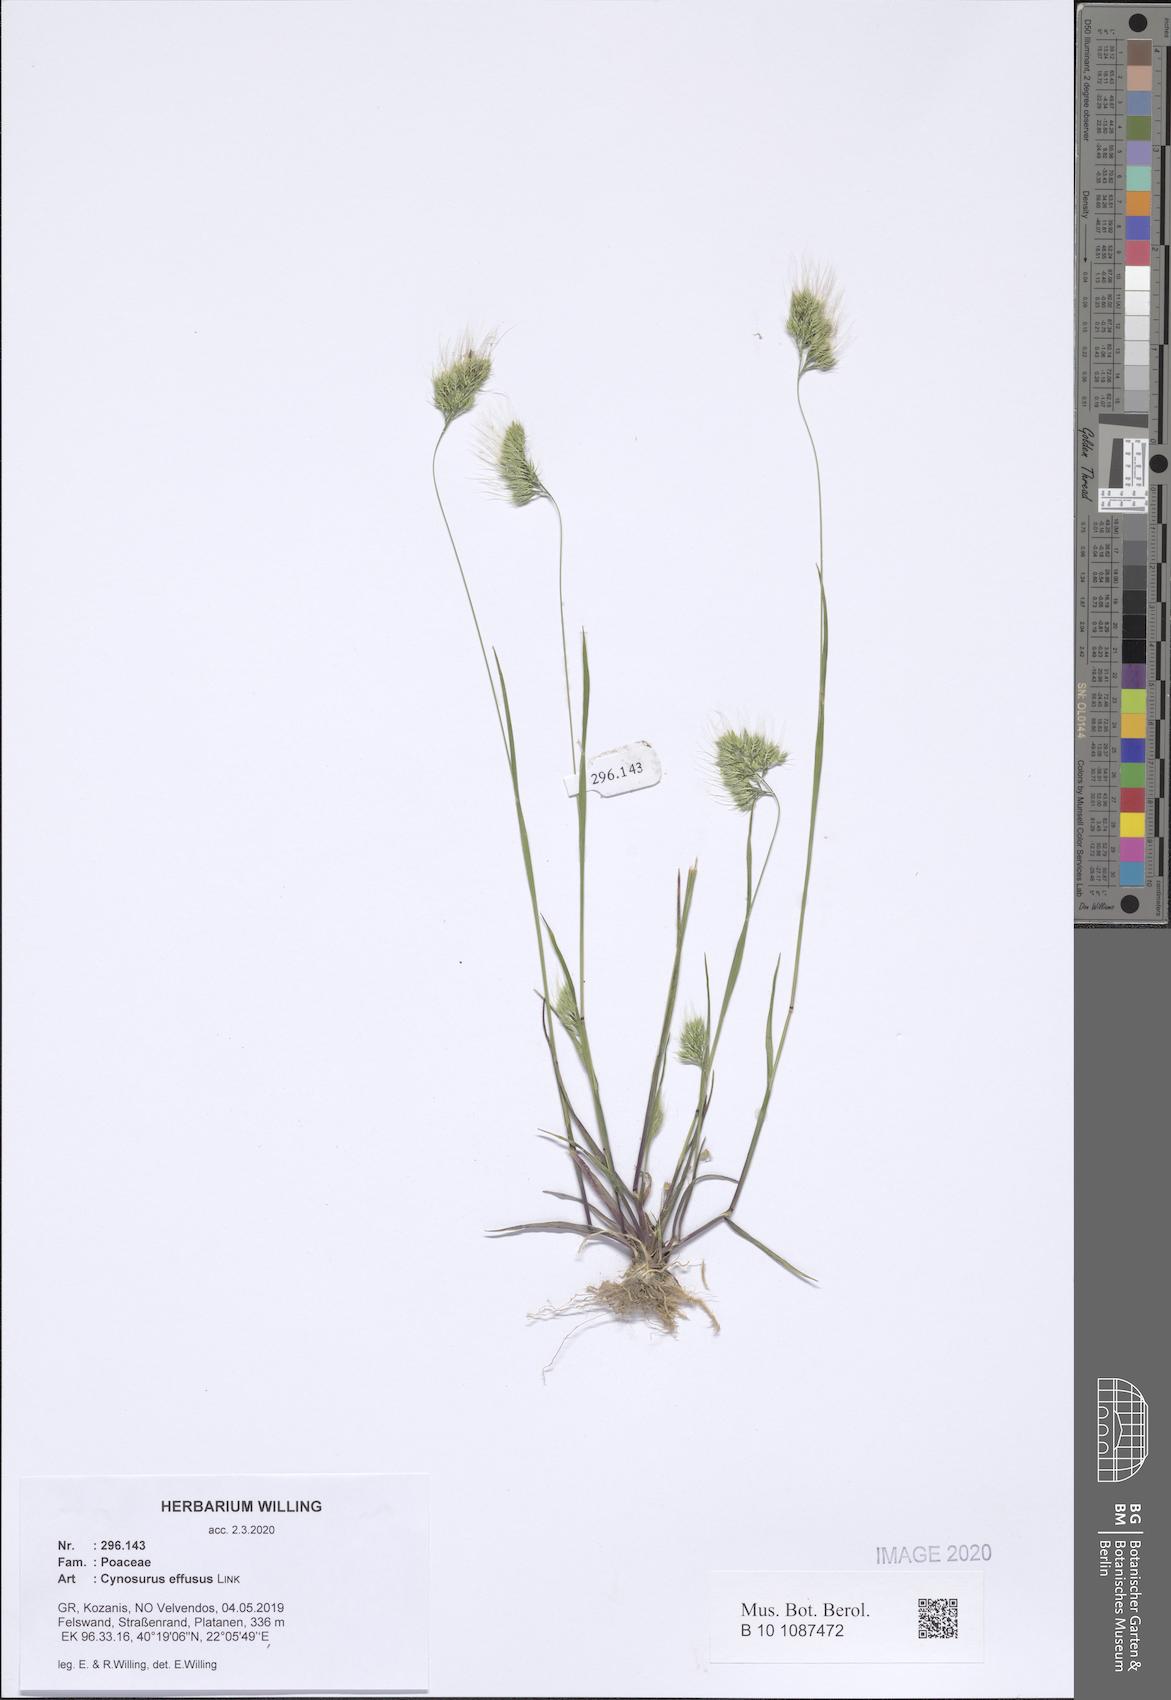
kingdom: Plantae
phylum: Tracheophyta
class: Liliopsida
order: Poales
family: Poaceae
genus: Cynosurus
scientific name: Cynosurus effusus
